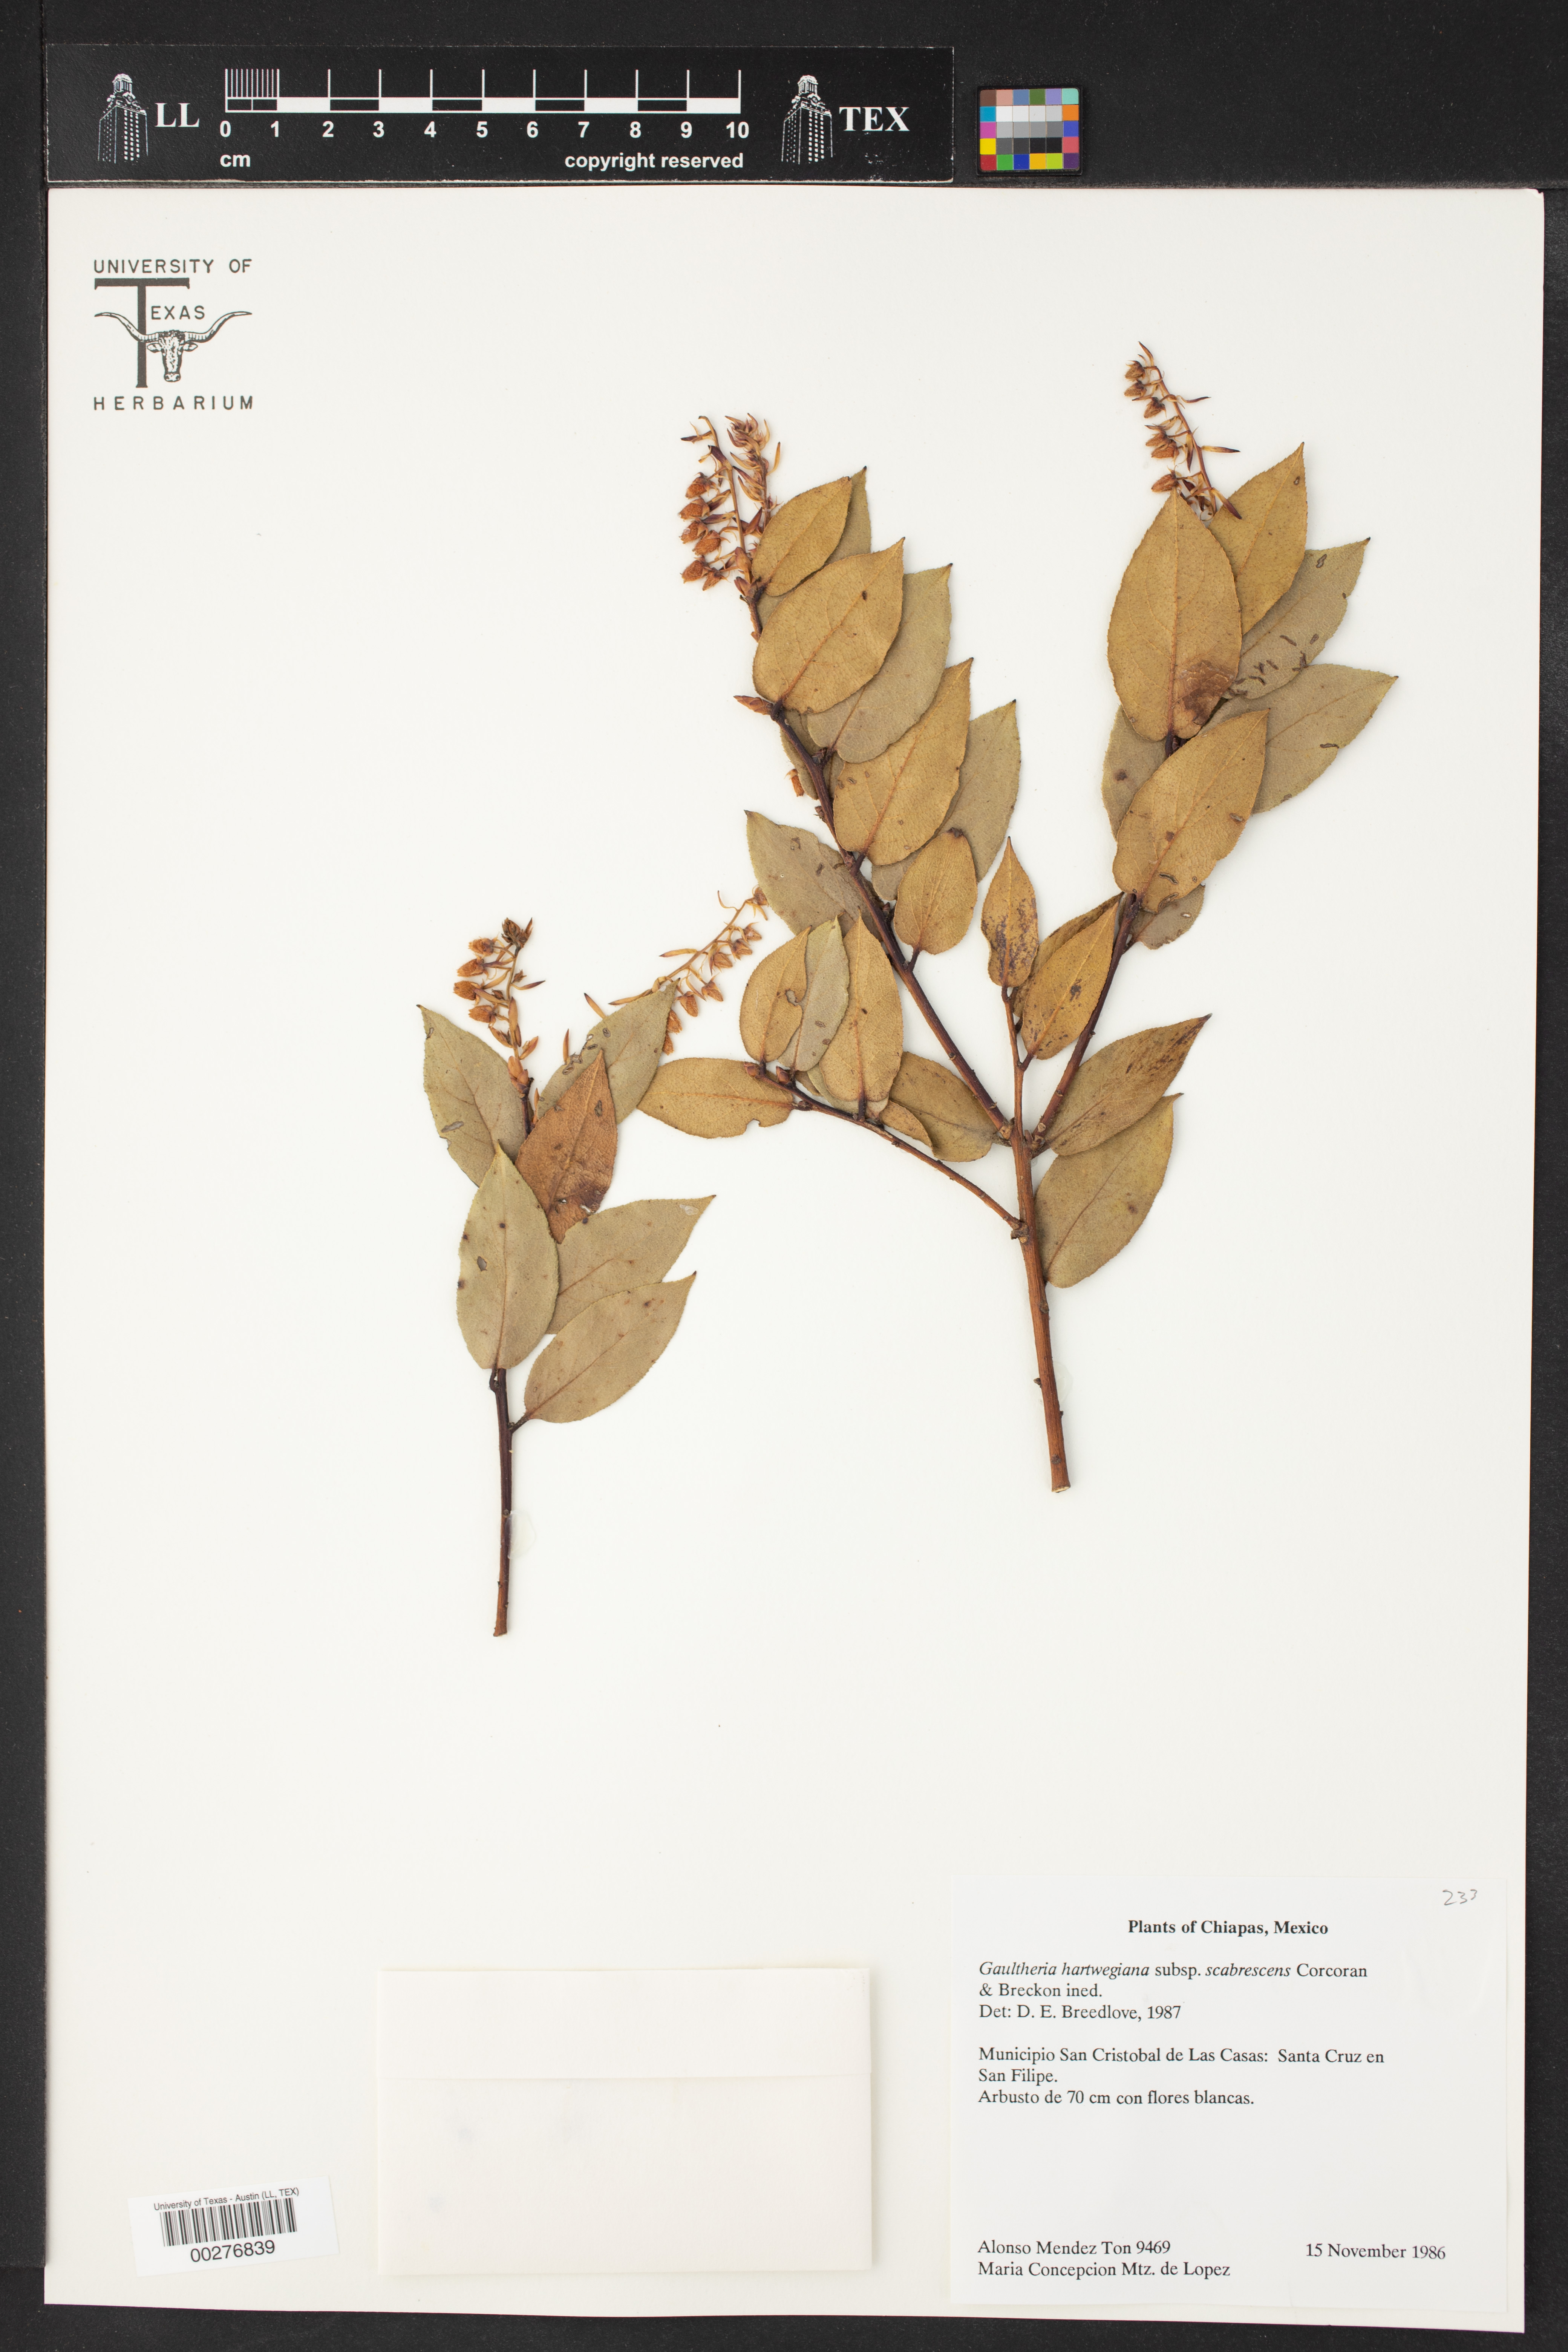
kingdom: Plantae
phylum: Tracheophyta
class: Magnoliopsida
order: Ericales
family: Ericaceae
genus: Gaultheria
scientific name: Gaultheria erecta
